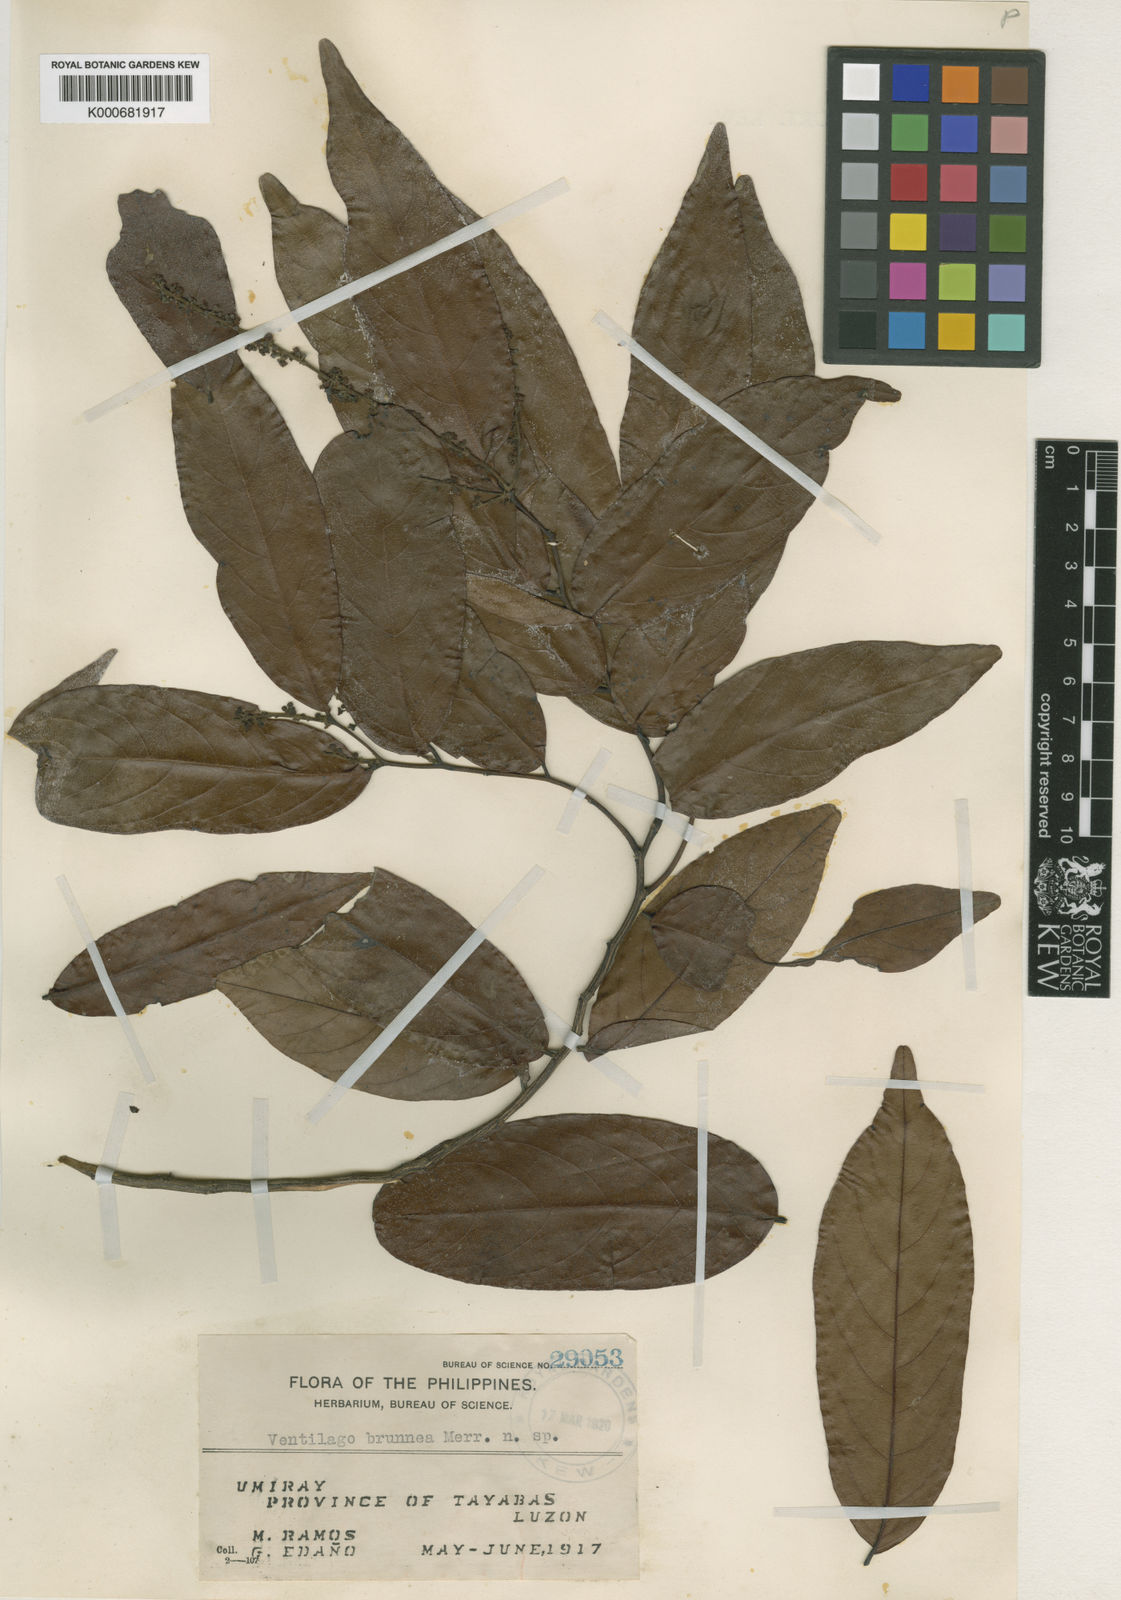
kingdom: Plantae
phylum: Tracheophyta
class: Magnoliopsida
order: Rosales
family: Rhamnaceae
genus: Ventilago
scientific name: Ventilago brunnea
